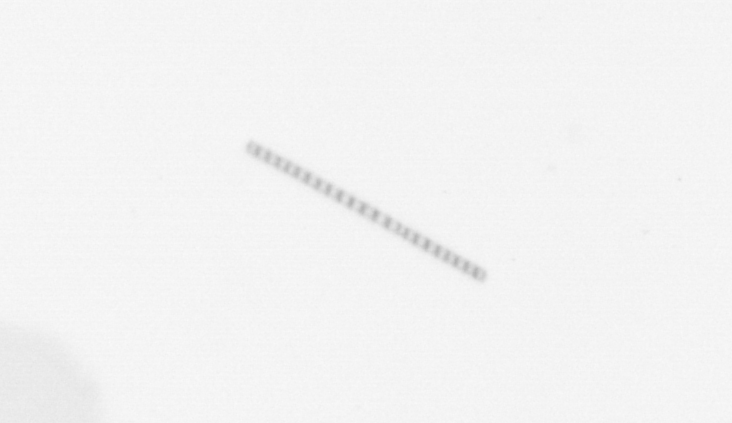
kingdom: Chromista
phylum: Ochrophyta
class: Bacillariophyceae
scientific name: Bacillariophyceae
